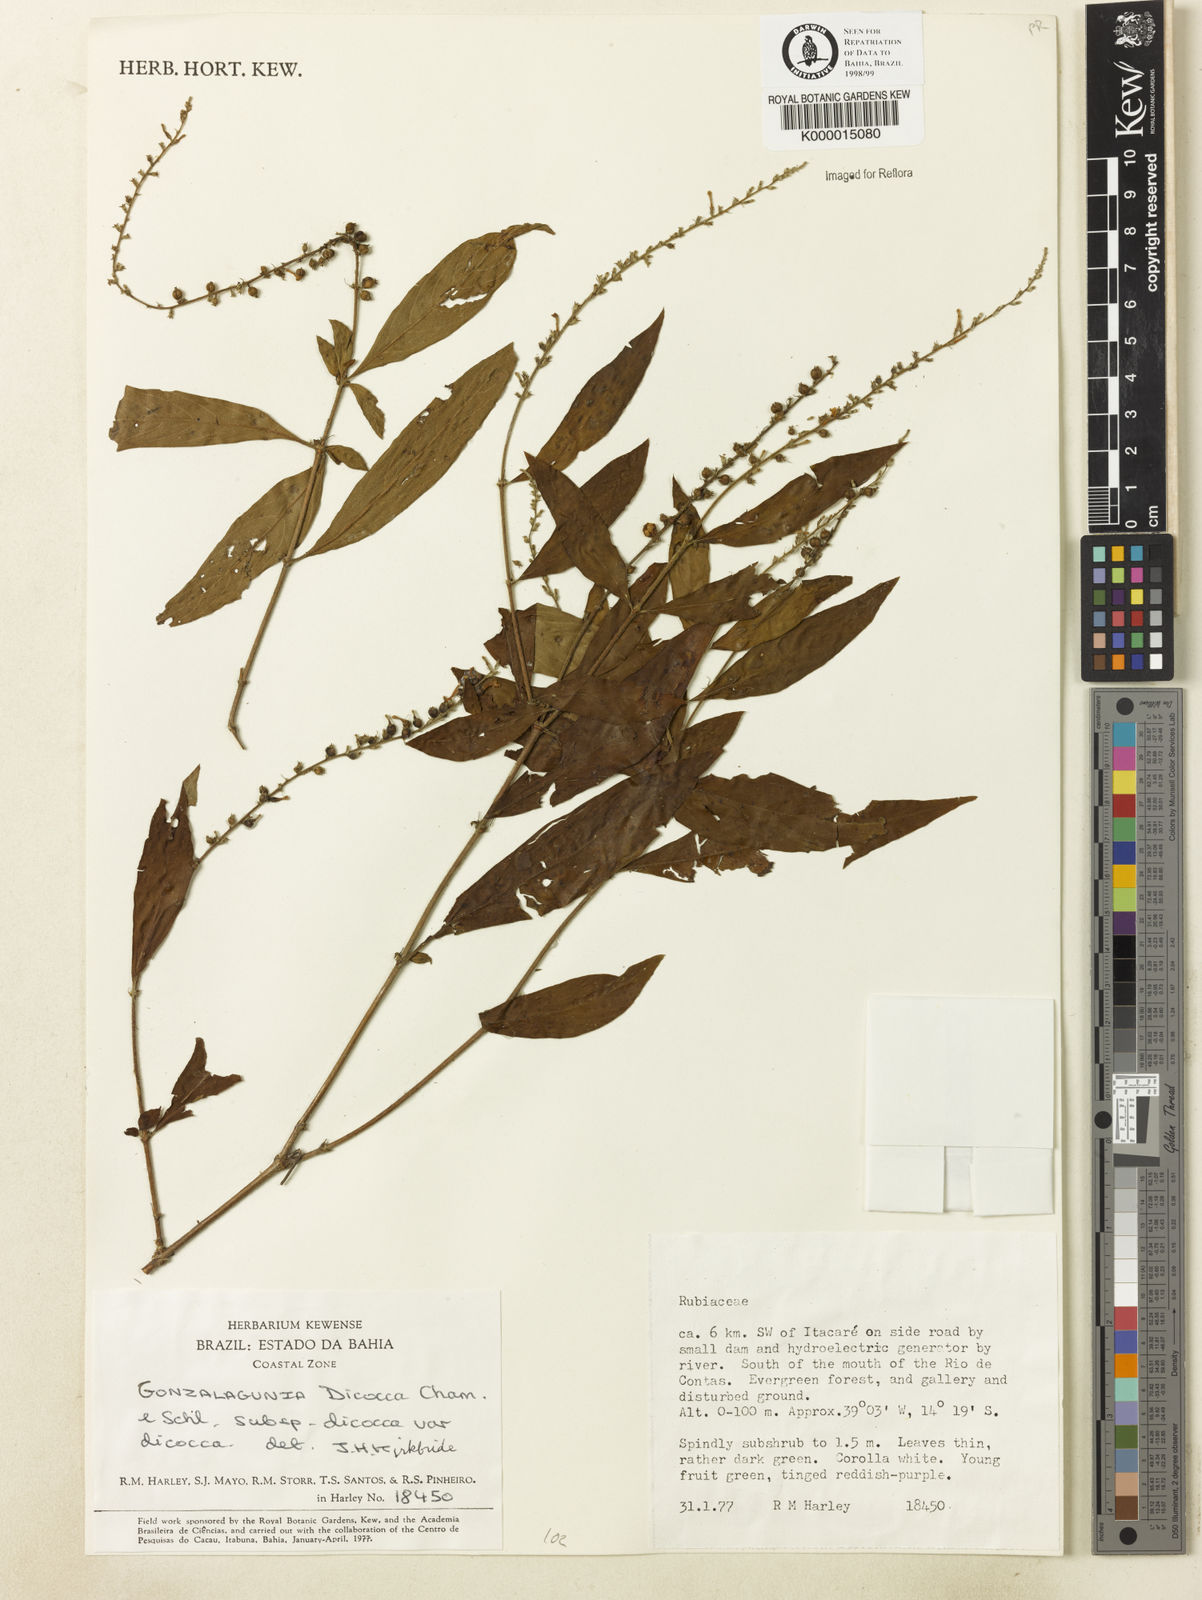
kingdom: Plantae
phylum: Tracheophyta
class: Magnoliopsida
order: Gentianales
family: Rubiaceae
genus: Gonzalagunia
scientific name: Gonzalagunia dicocca
